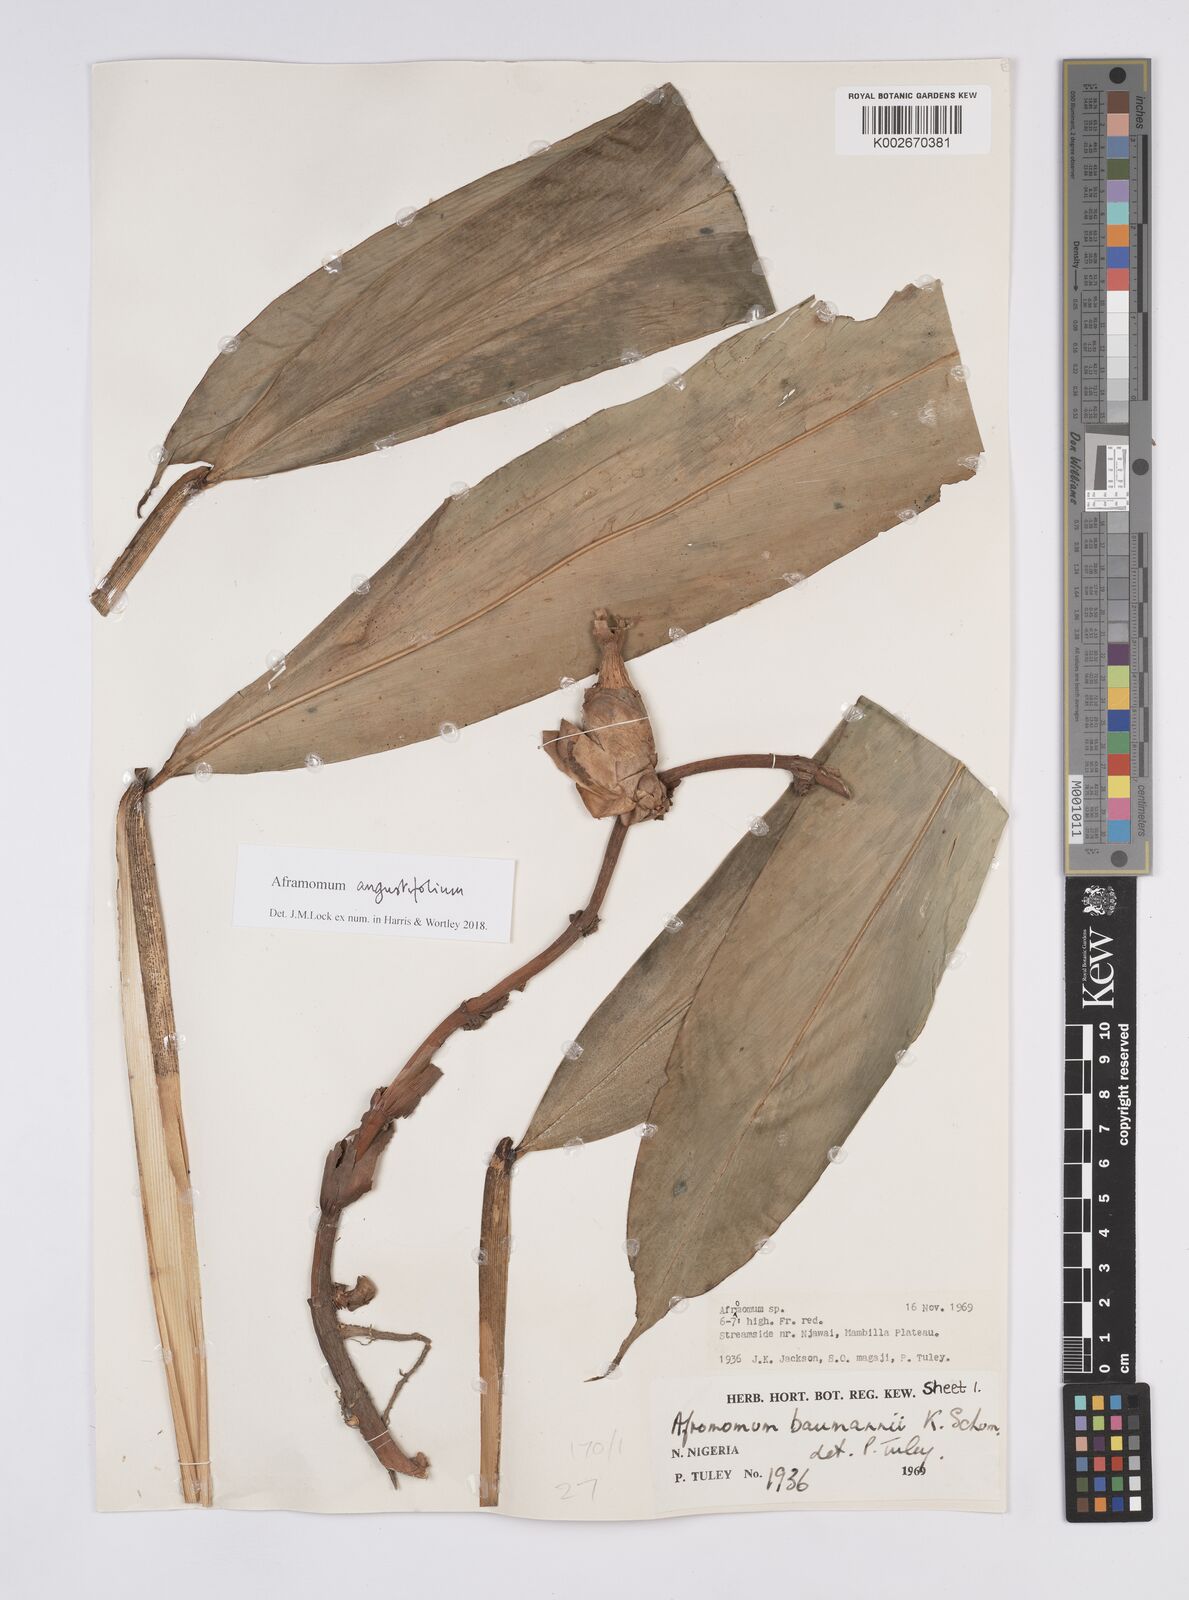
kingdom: Plantae
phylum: Tracheophyta
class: Liliopsida
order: Zingiberales
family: Zingiberaceae
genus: Aframomum
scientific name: Aframomum angustifolium
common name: Guinea grains
